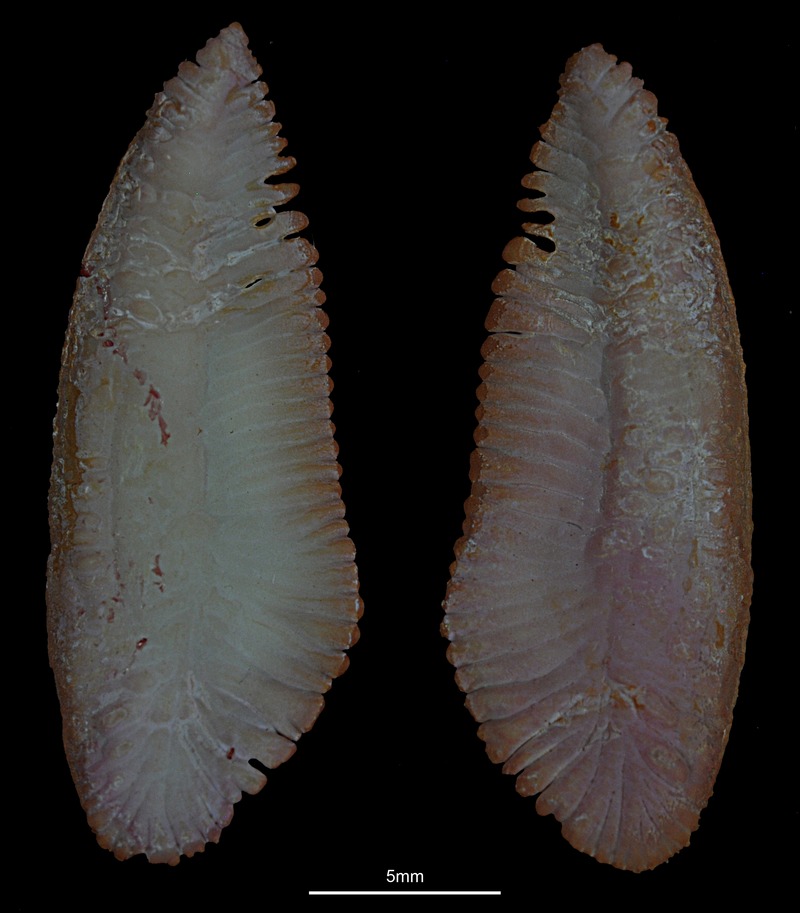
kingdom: Animalia
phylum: Chordata
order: Gadiformes
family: Merlucciidae
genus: Merluccius
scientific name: Merluccius merluccius
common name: European hake
